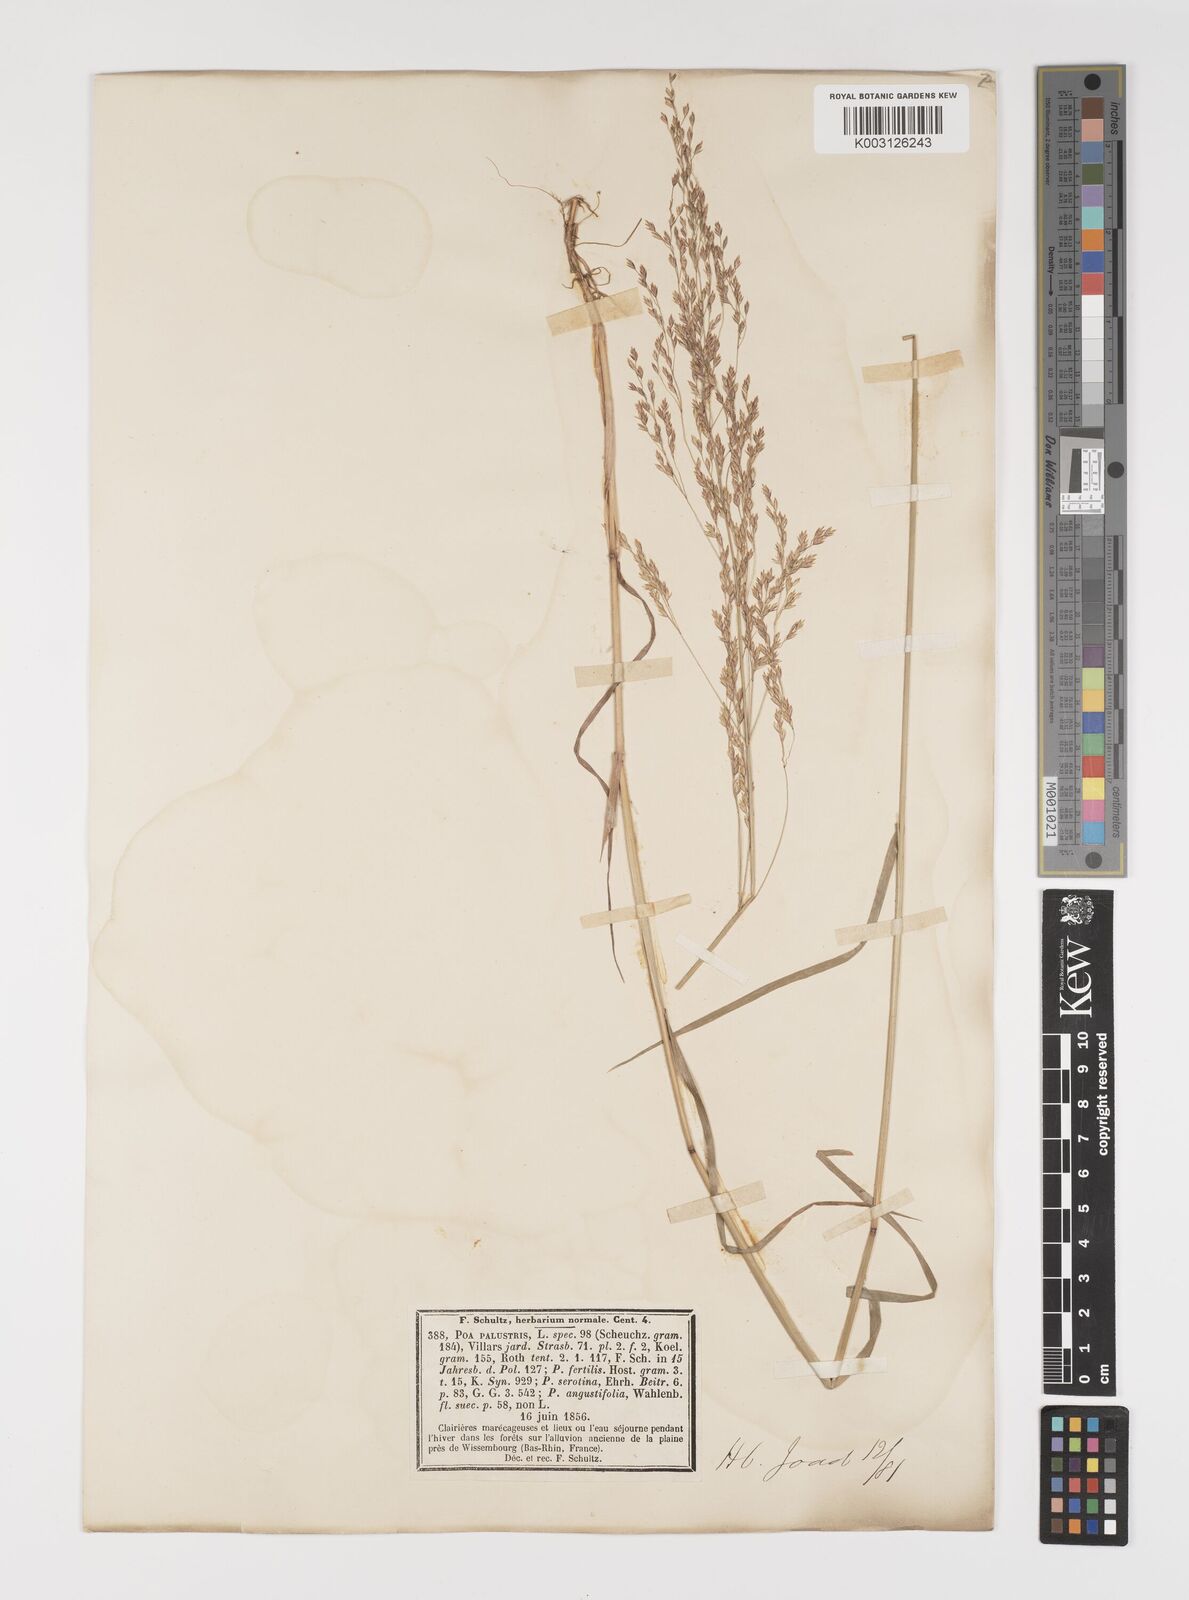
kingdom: Plantae
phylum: Tracheophyta
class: Liliopsida
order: Poales
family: Poaceae
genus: Poa
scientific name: Poa palustris
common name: Swamp meadow-grass
